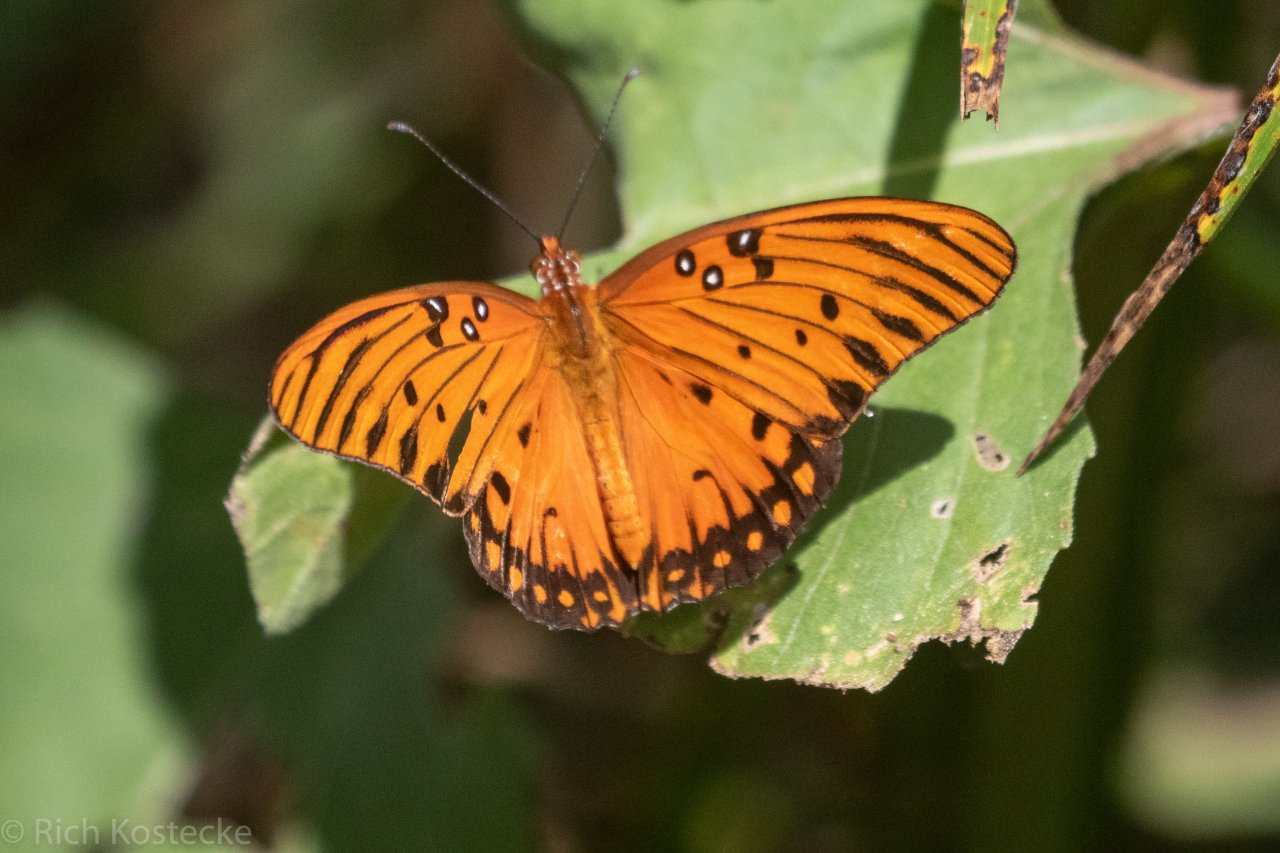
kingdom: Animalia
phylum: Arthropoda
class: Insecta
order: Lepidoptera
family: Nymphalidae
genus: Dione
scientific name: Dione vanillae
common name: Gulf Fritillary
